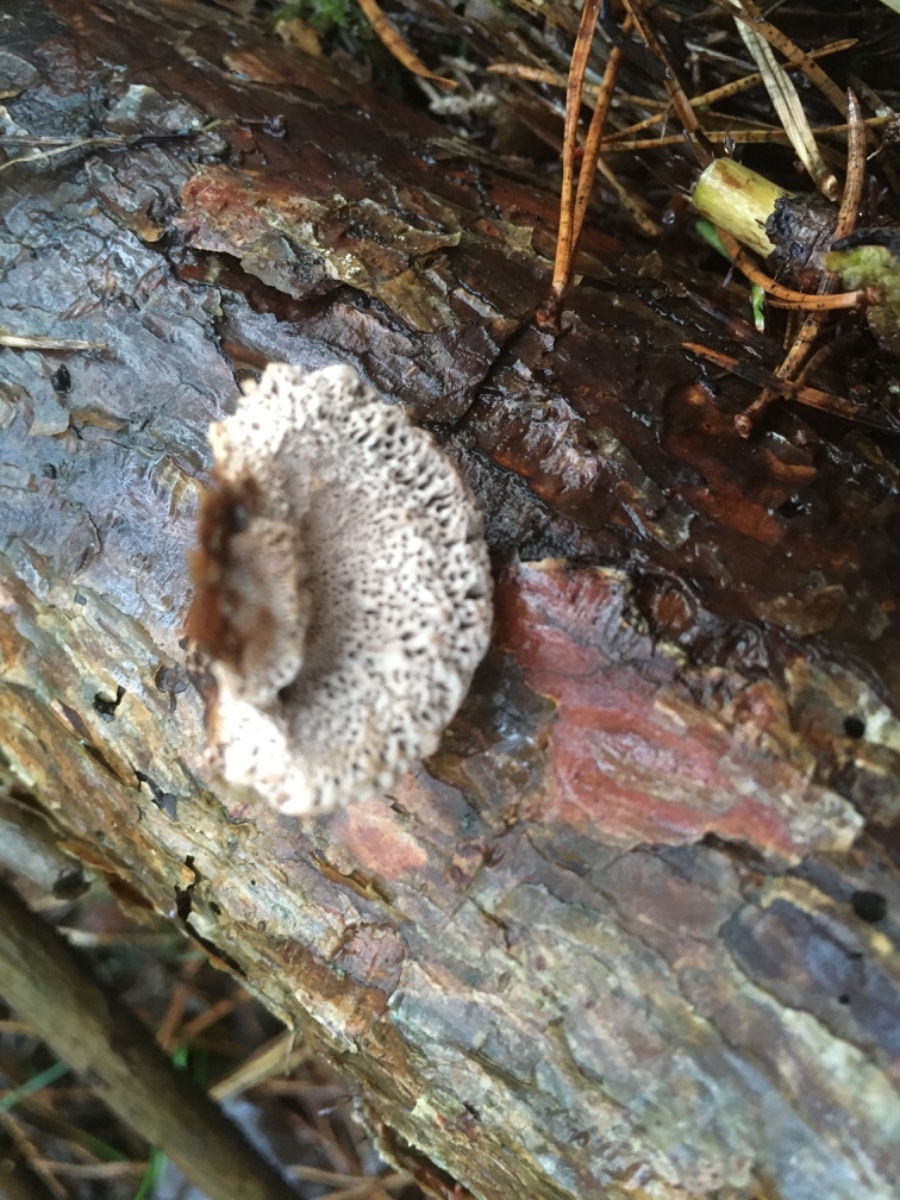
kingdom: Fungi
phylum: Basidiomycota
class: Agaricomycetes
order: Gloeophyllales
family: Gloeophyllaceae
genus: Gloeophyllum
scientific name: Gloeophyllum odoratum
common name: duftende korkhat
